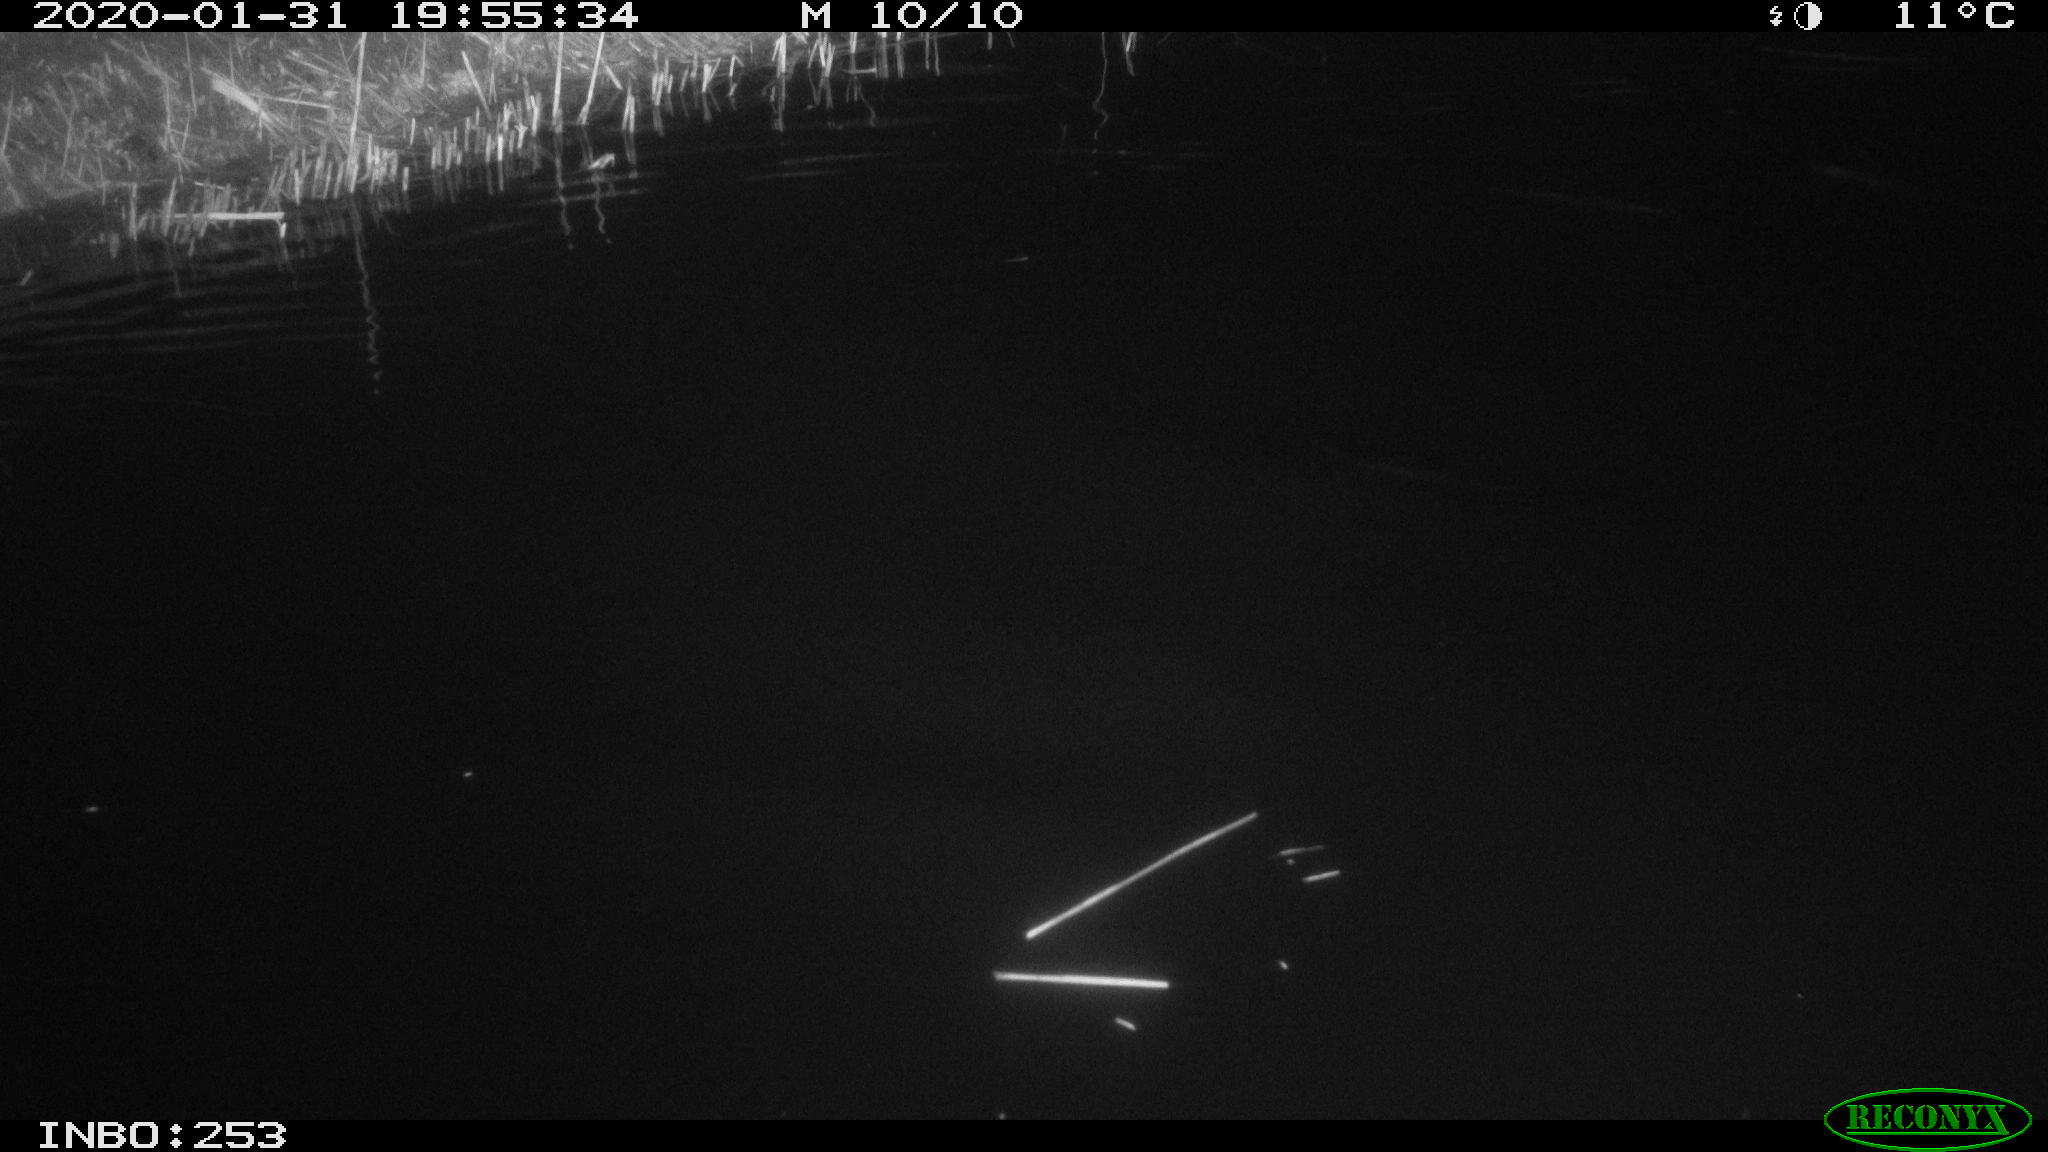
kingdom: Animalia
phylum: Chordata
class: Mammalia
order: Rodentia
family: Muridae
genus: Rattus
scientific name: Rattus norvegicus
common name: Brown rat
